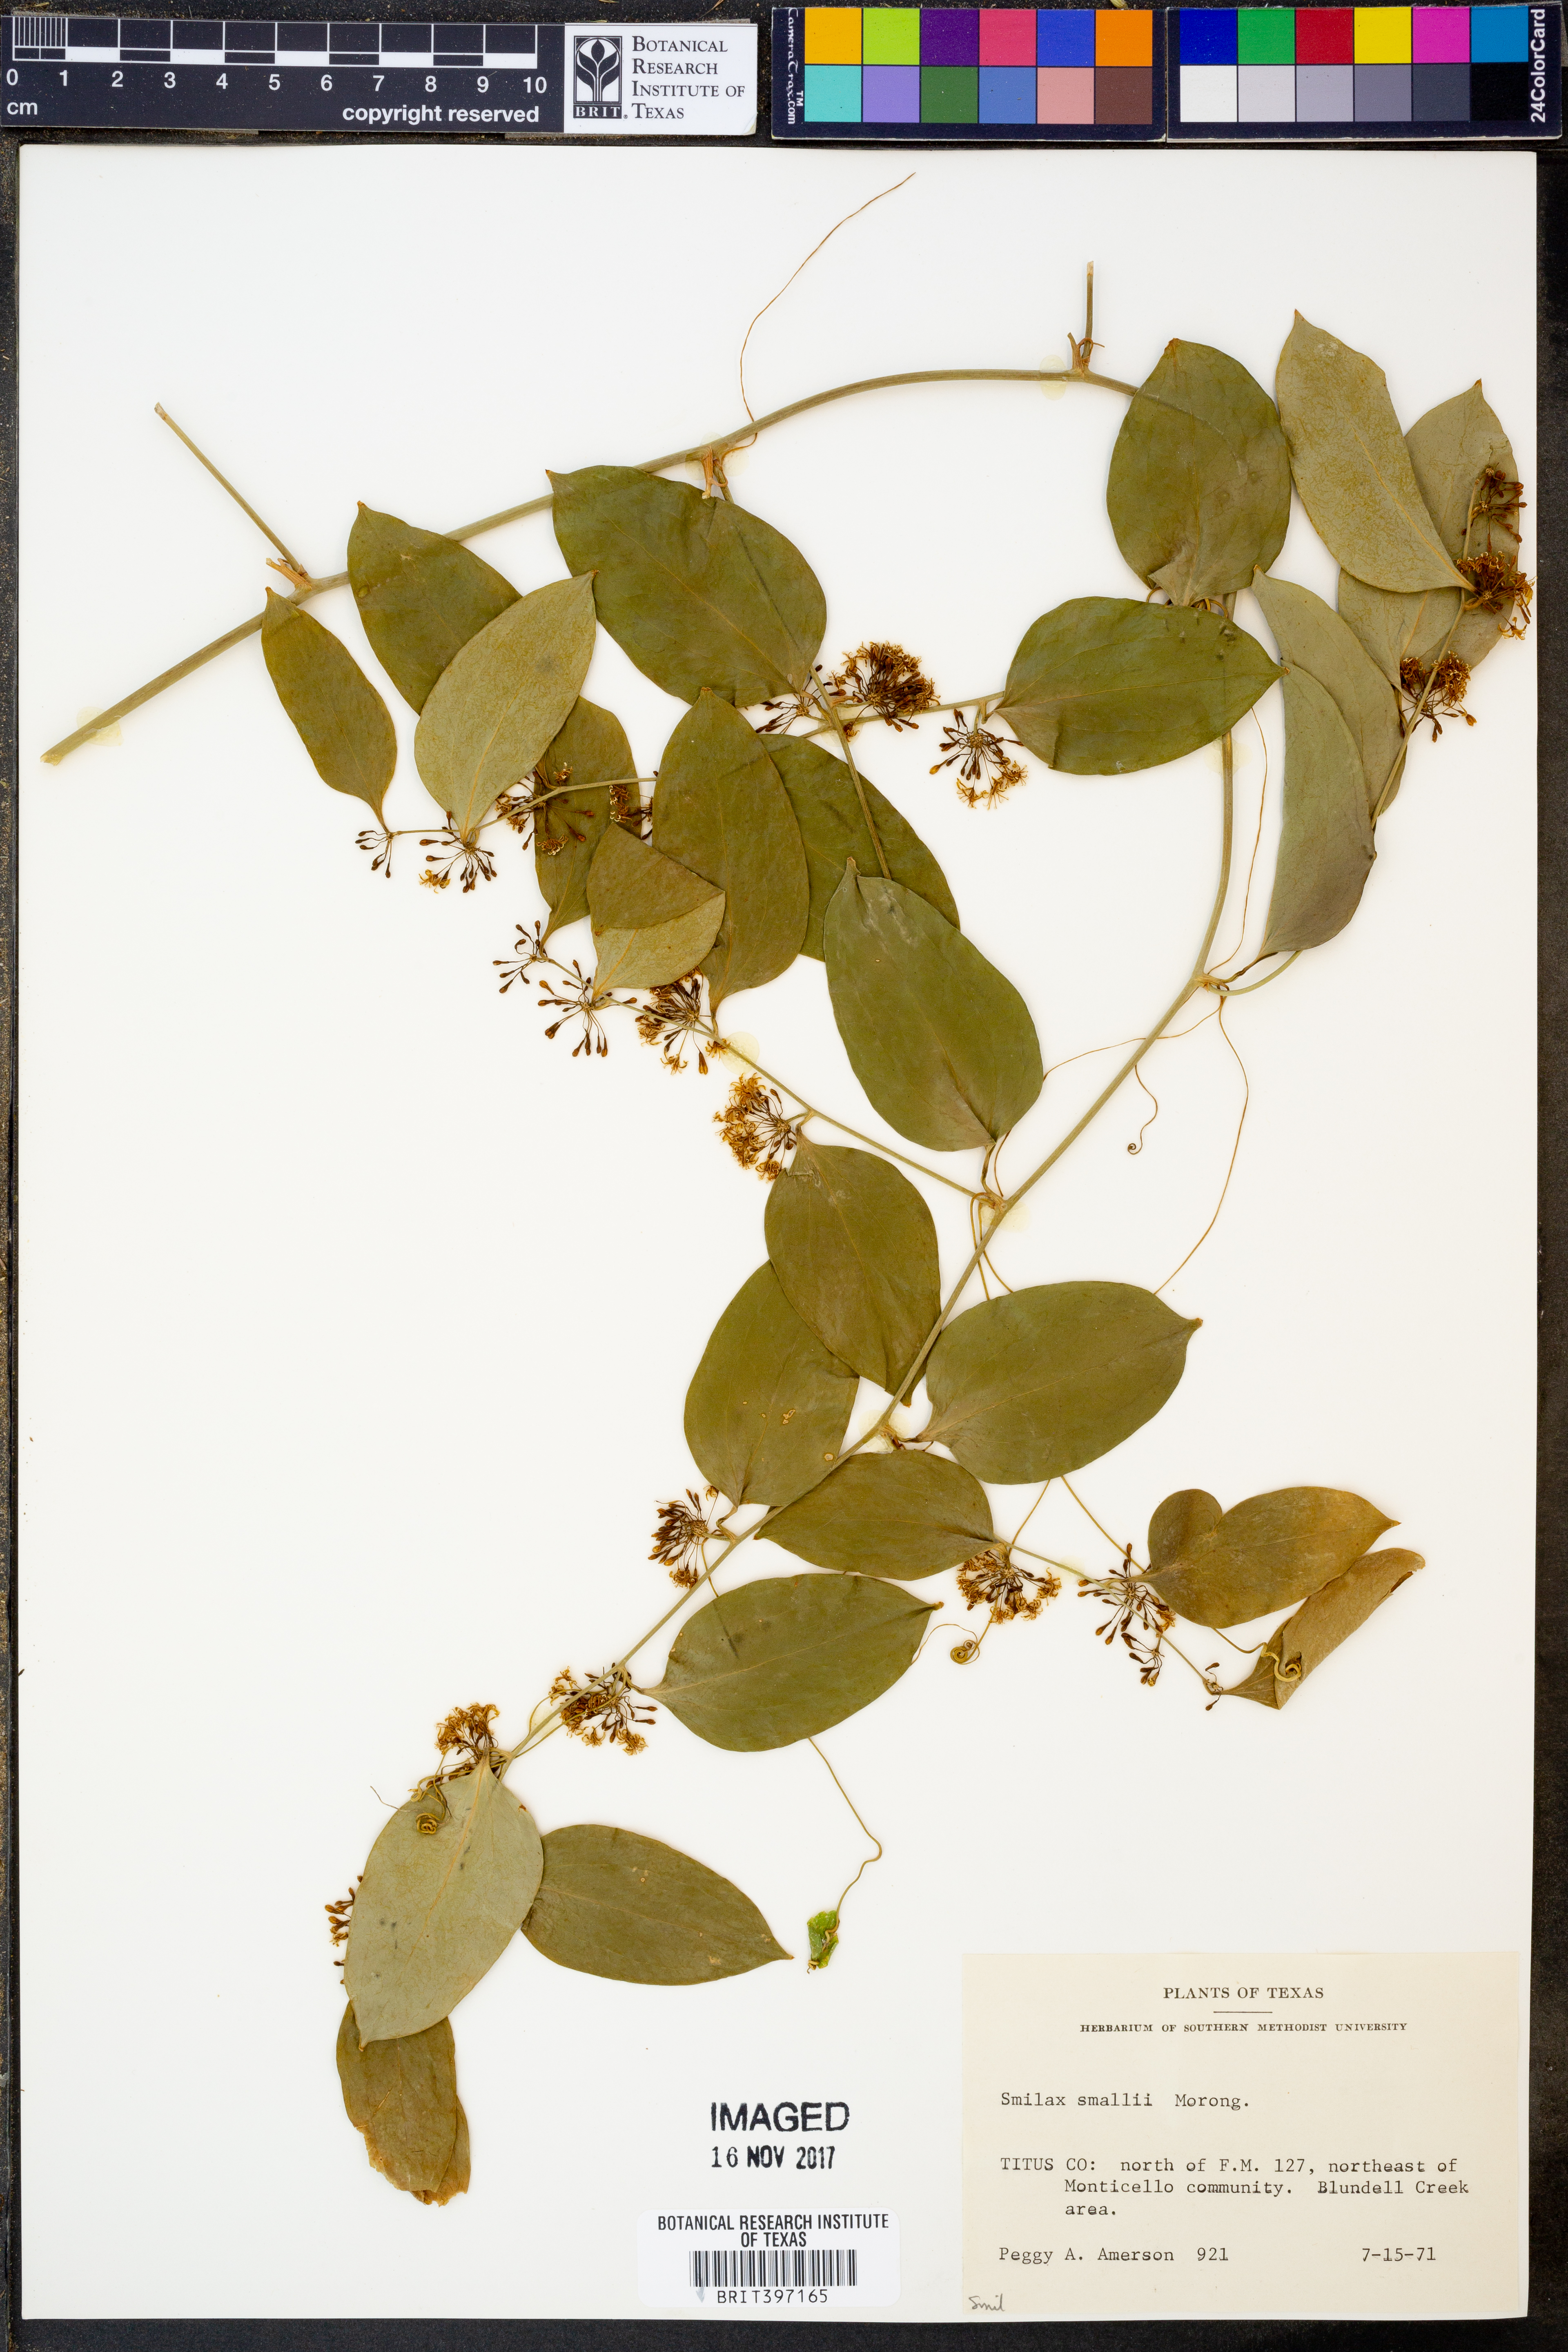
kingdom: Plantae
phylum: Tracheophyta
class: Liliopsida
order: Liliales
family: Smilacaceae
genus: Smilax
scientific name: Smilax maritima
